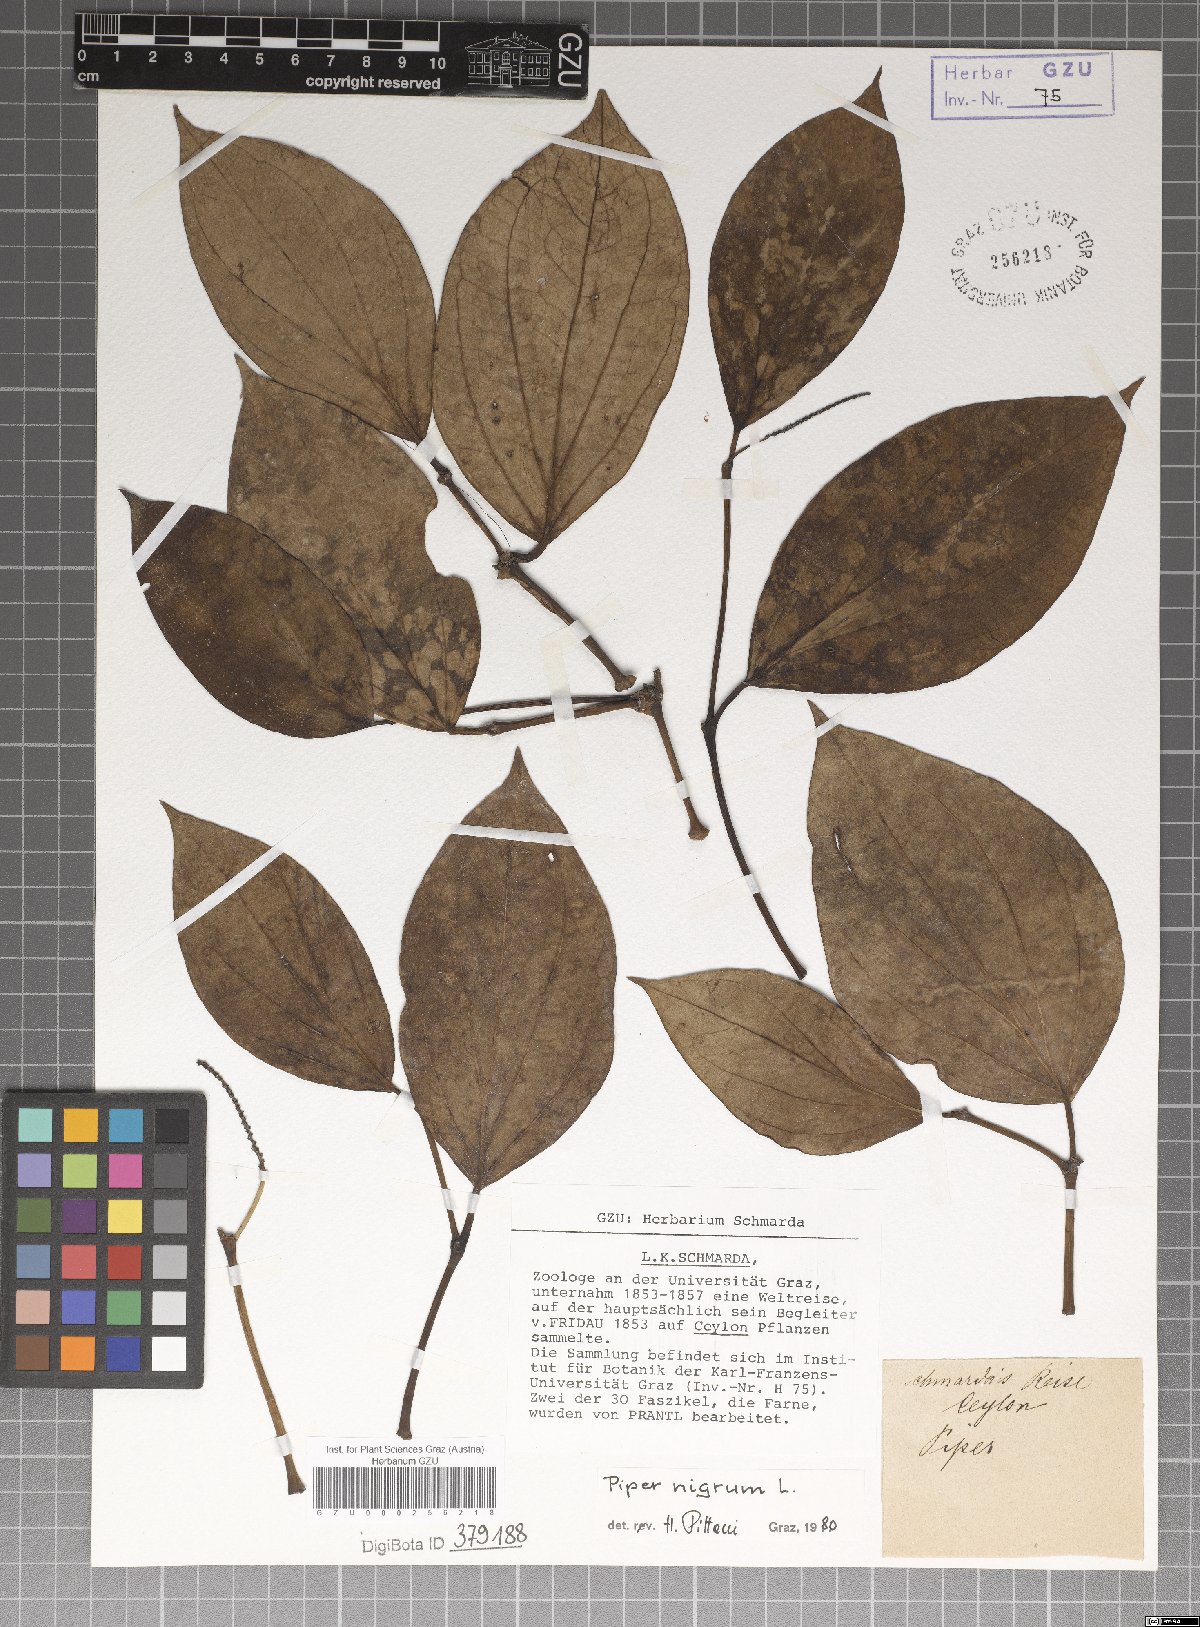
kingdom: Plantae
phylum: Tracheophyta
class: Magnoliopsida
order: Piperales
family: Piperaceae
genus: Piper
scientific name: Piper nigrum
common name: Black pepper
